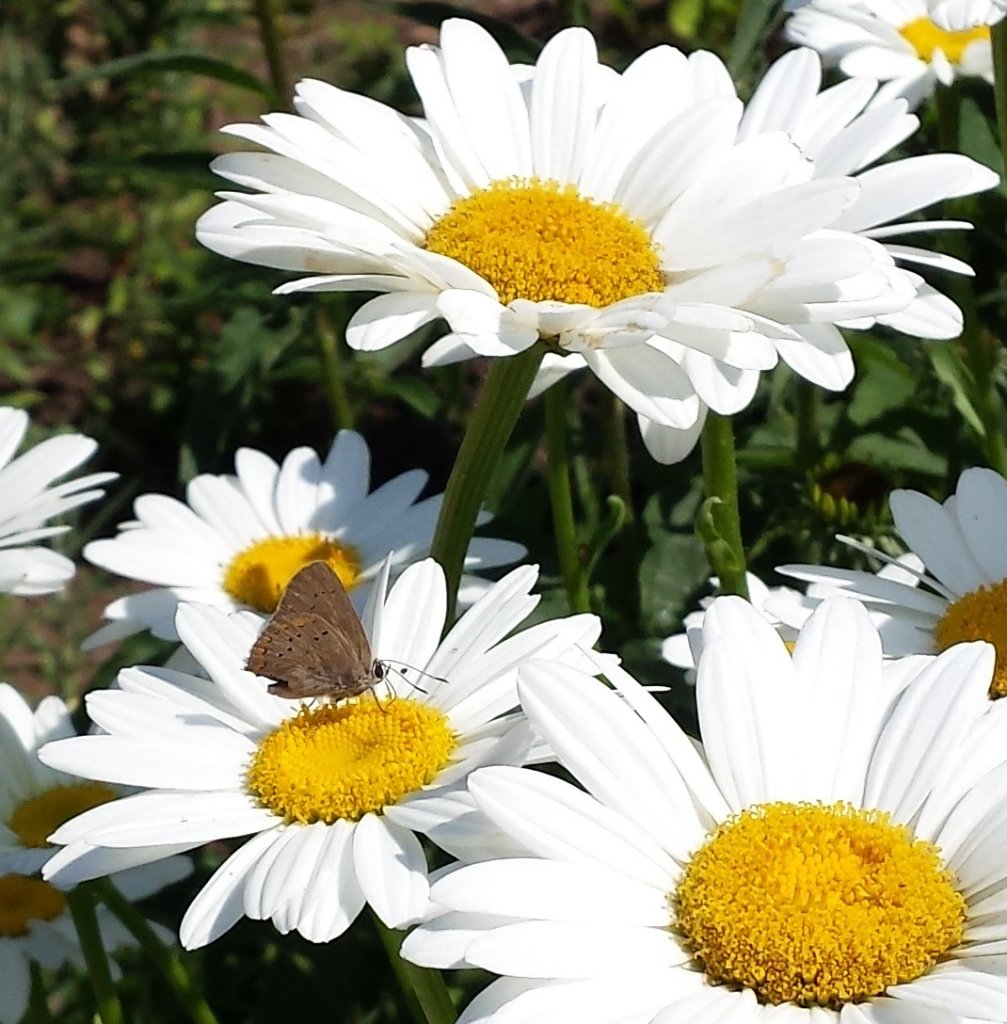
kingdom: Animalia
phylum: Arthropoda
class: Insecta
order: Lepidoptera
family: Lycaenidae
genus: Harkenclenus
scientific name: Harkenclenus titus
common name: Coral Hairstreak
